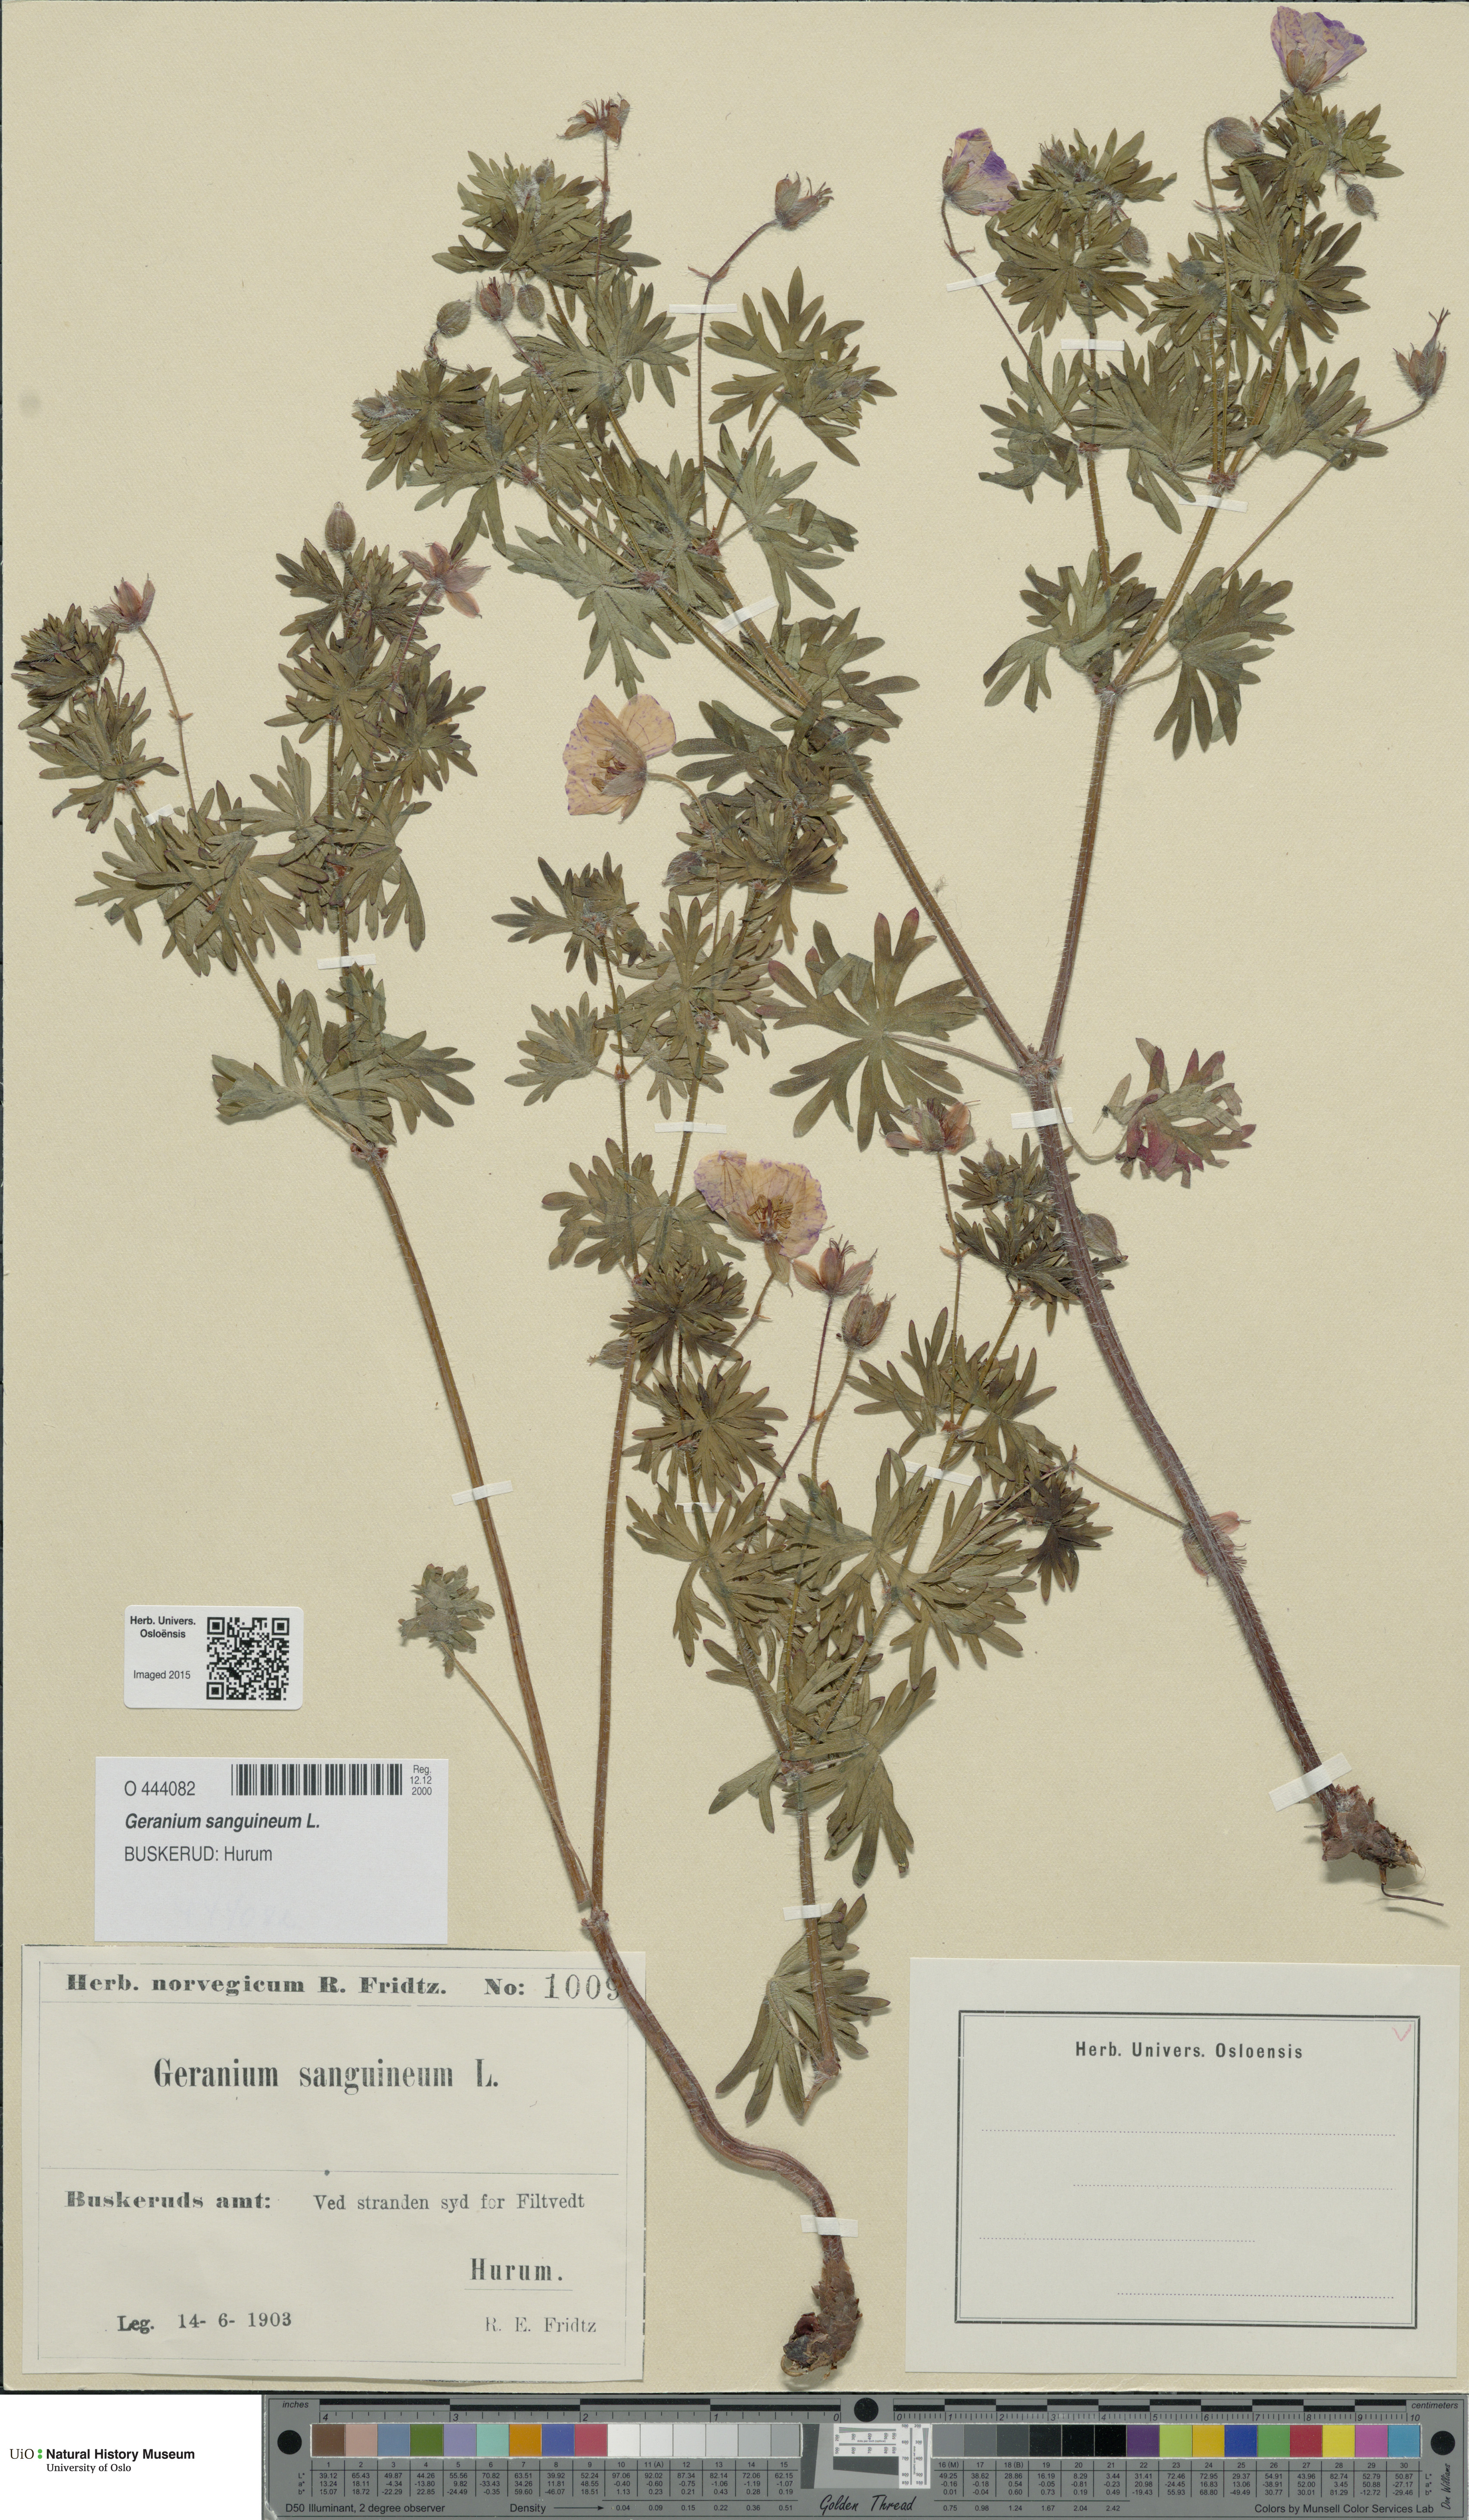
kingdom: Plantae
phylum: Tracheophyta
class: Magnoliopsida
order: Geraniales
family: Geraniaceae
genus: Geranium
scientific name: Geranium sanguineum
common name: Bloody crane's-bill
